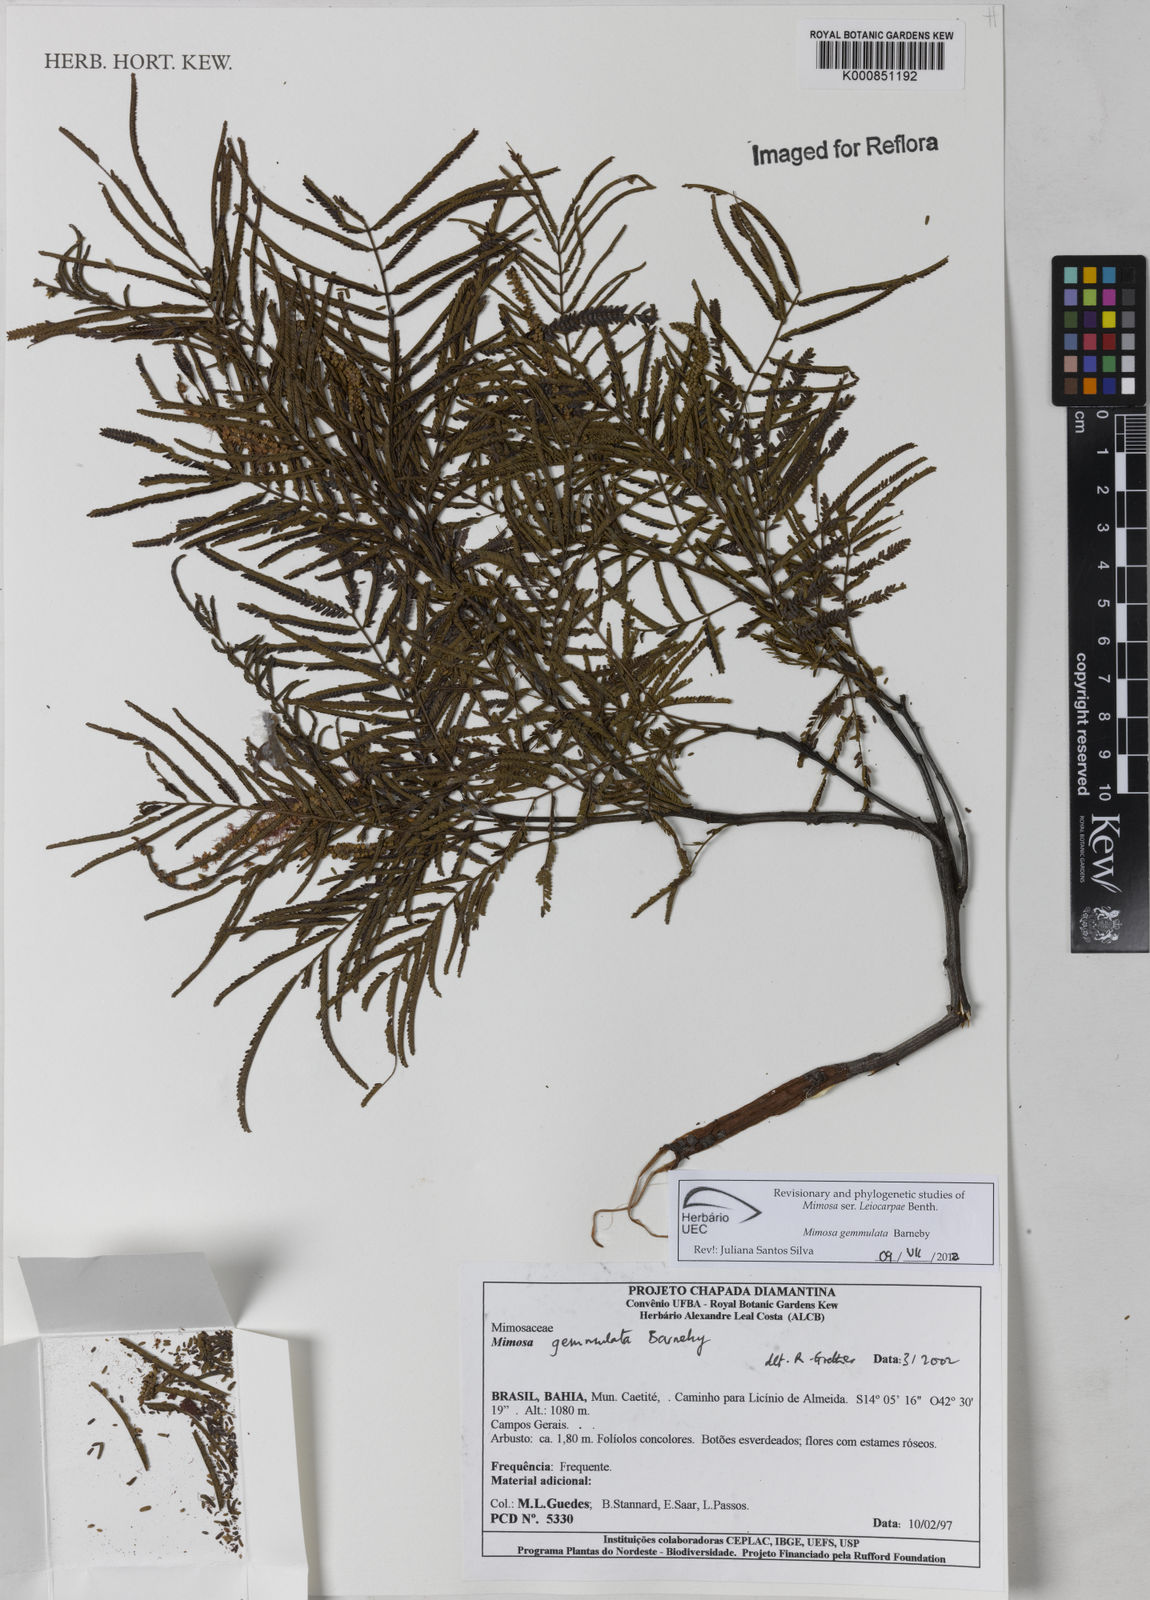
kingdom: Plantae
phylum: Tracheophyta
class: Magnoliopsida
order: Fabales
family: Fabaceae
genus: Mimosa
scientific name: Mimosa gemmulata
